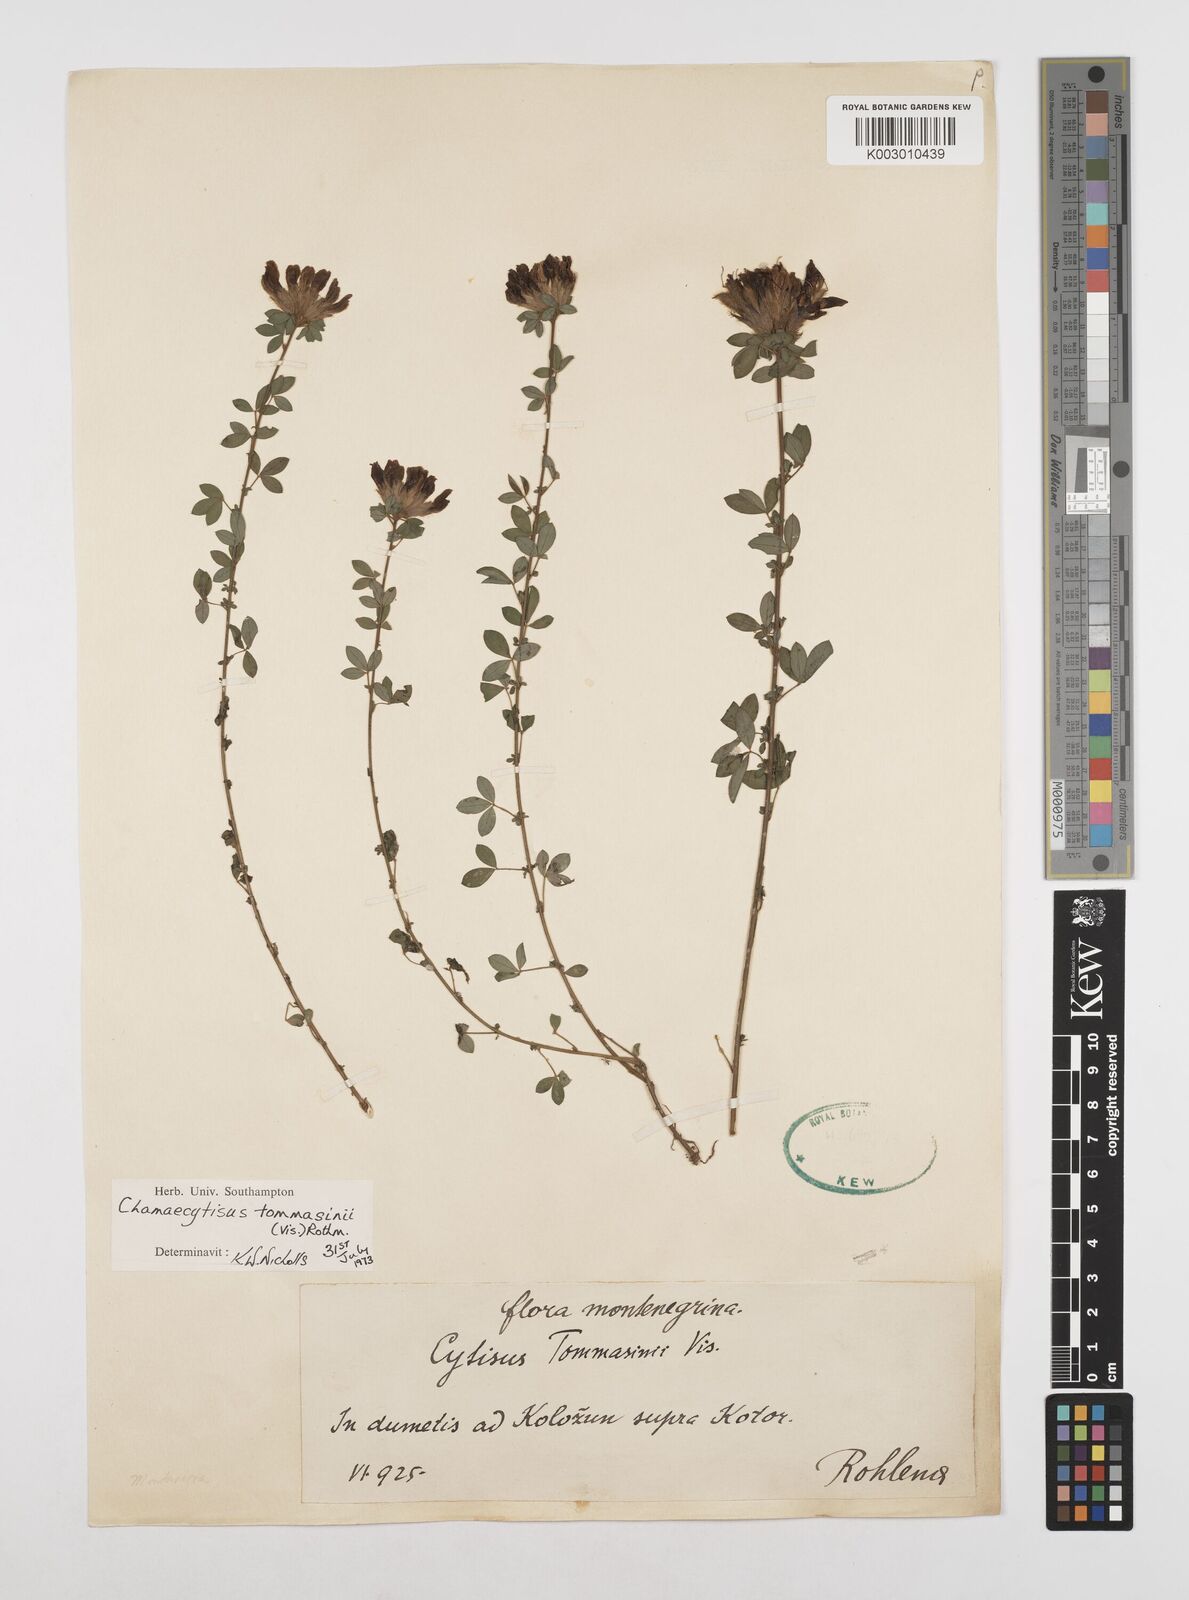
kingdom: Plantae
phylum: Tracheophyta
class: Magnoliopsida
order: Fabales
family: Fabaceae
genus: Chamaecytisus
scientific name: Chamaecytisus tommasinii
